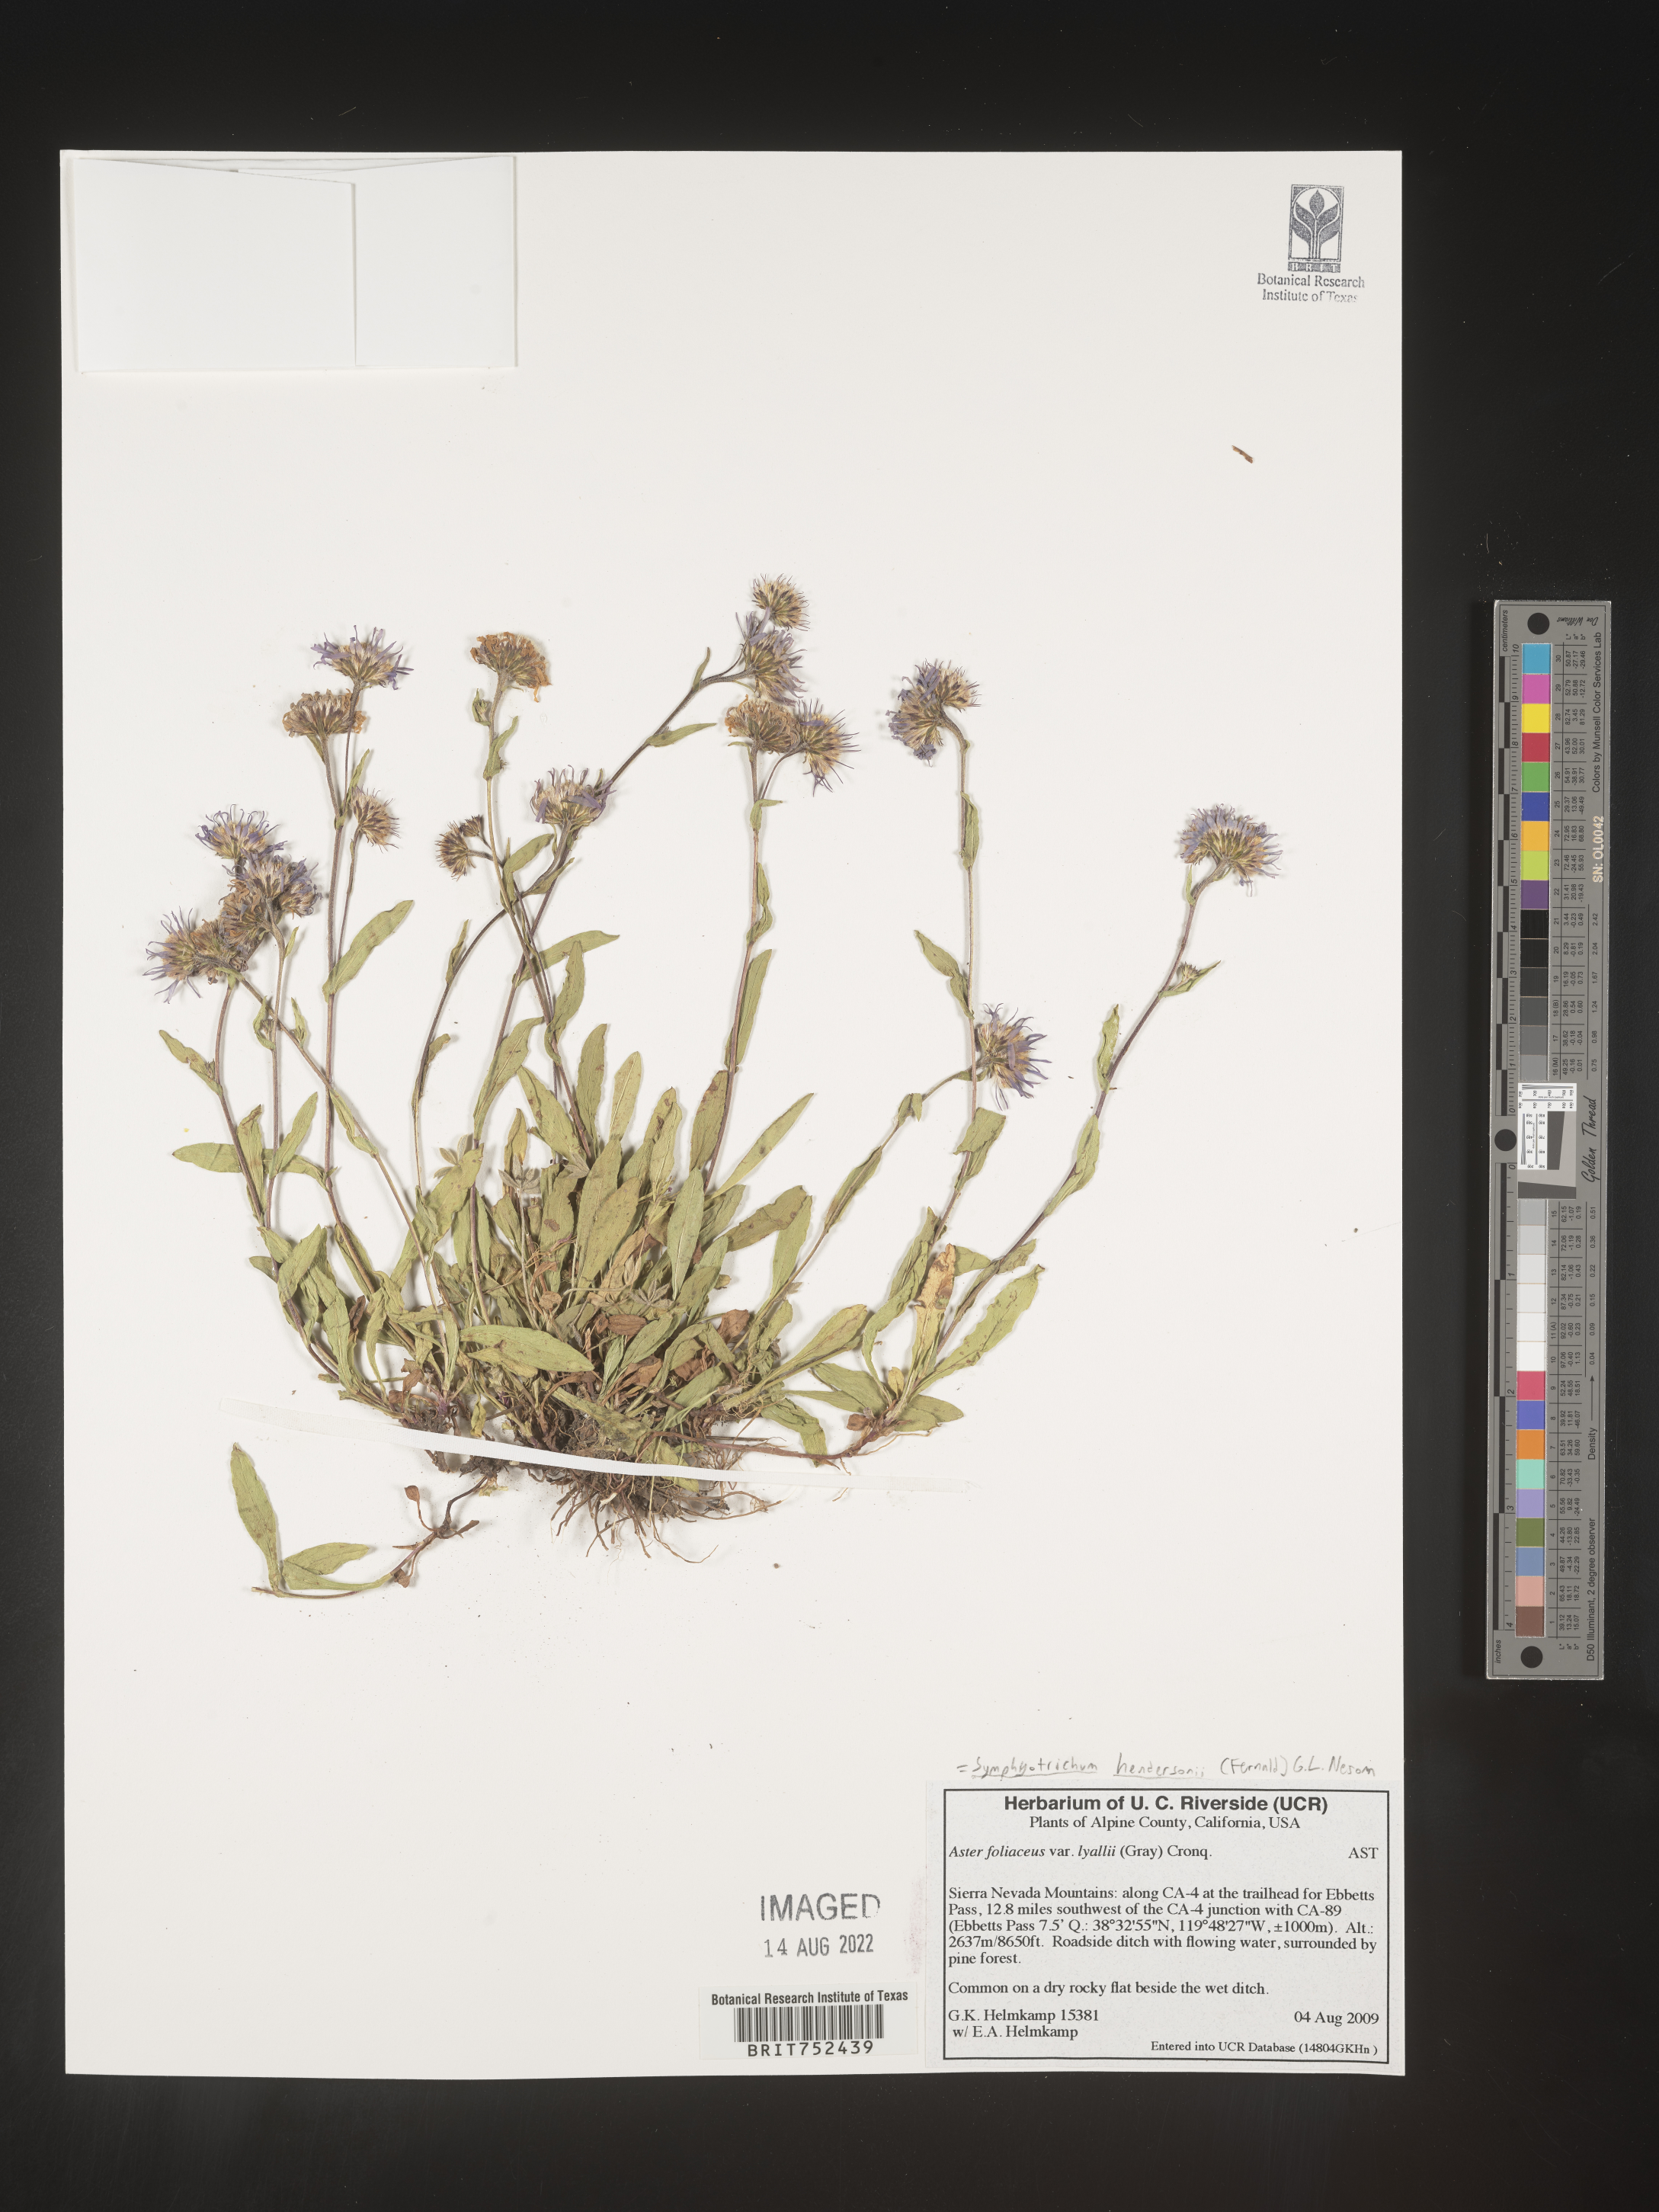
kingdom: Plantae
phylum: Tracheophyta
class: Magnoliopsida
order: Asterales
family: Asteraceae
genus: Symphyotrichum
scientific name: Symphyotrichum hendersonii
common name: Henderson’s aster
